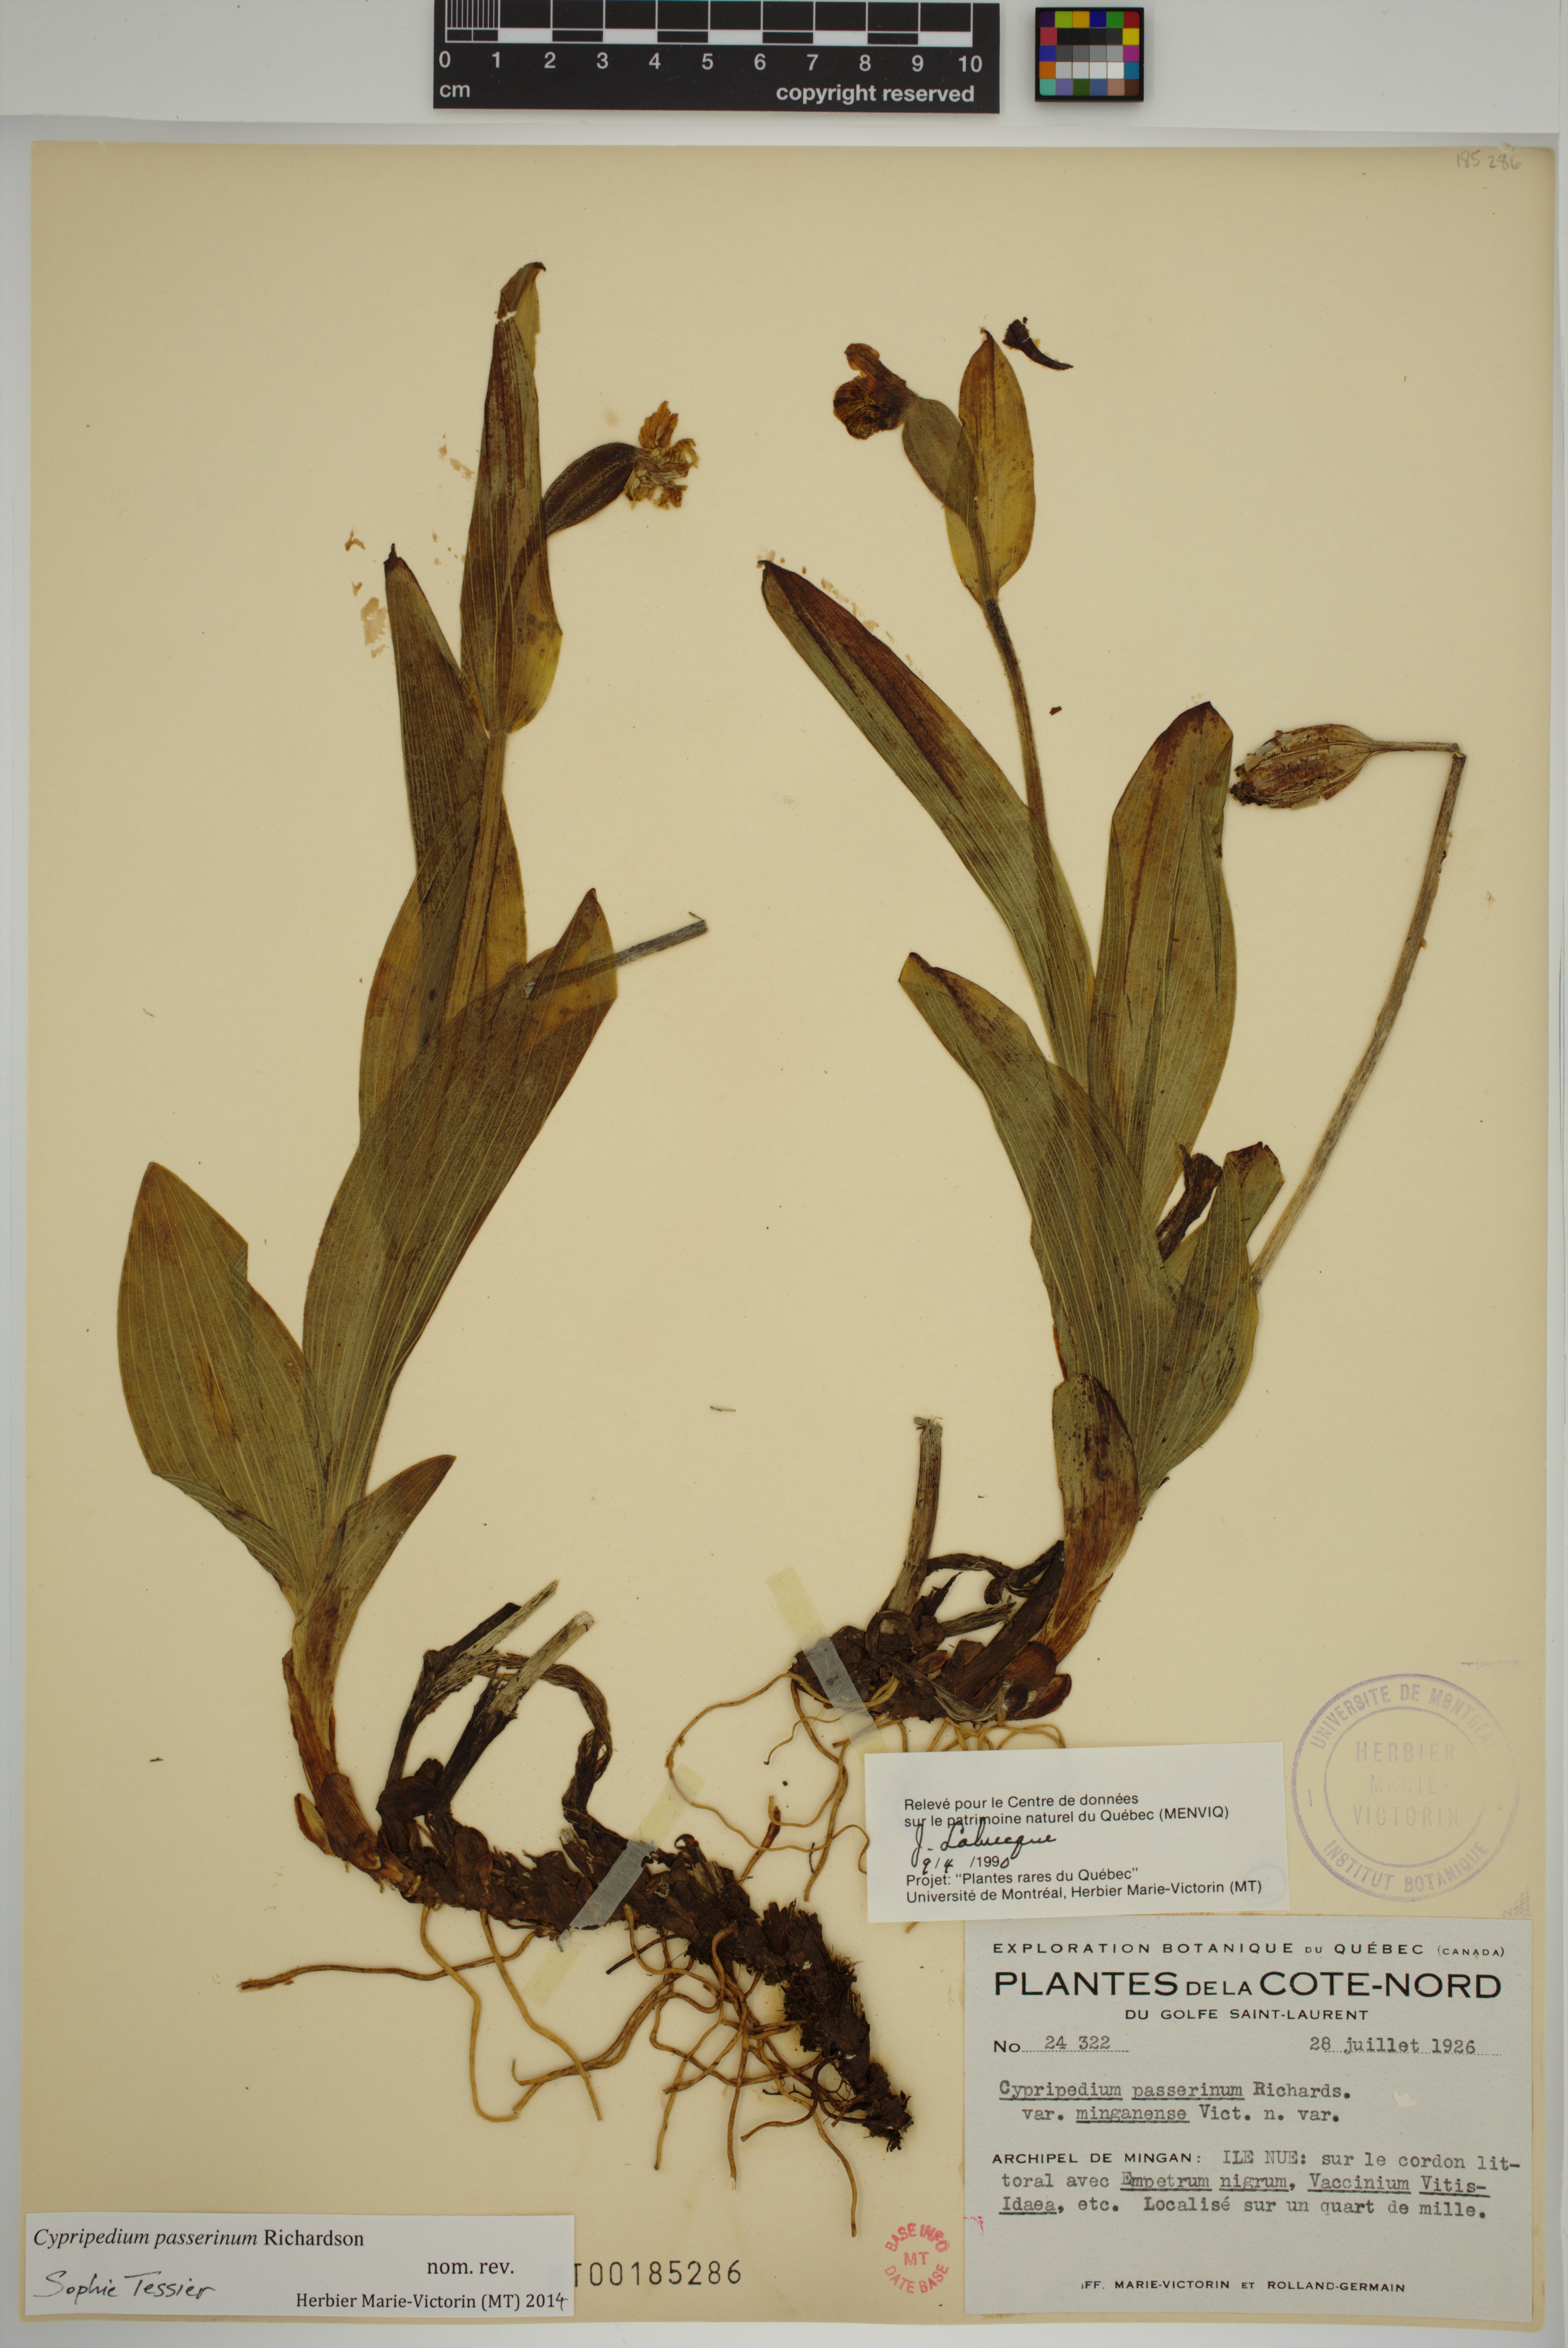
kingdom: Plantae
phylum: Tracheophyta
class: Liliopsida
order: Asparagales
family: Orchidaceae
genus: Cypripedium
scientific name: Cypripedium passerinum
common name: Sparrow's-egg lady's-slipper
